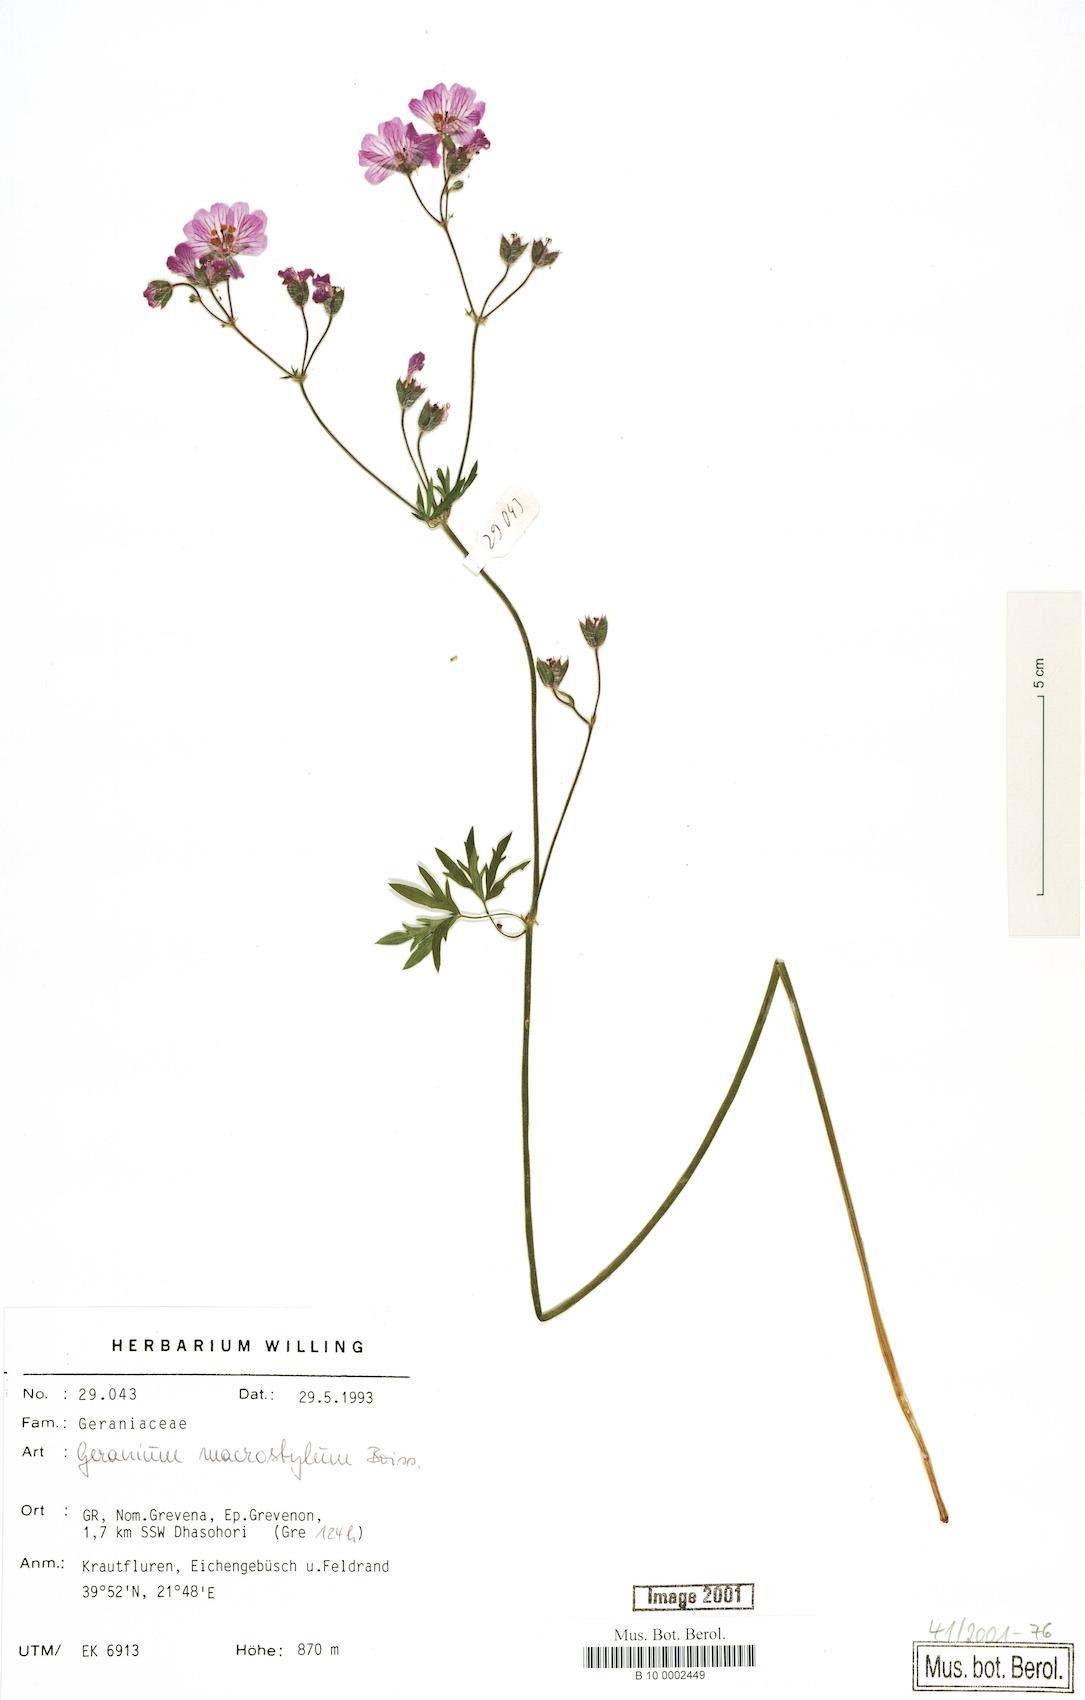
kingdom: Plantae
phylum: Tracheophyta
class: Magnoliopsida
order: Geraniales
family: Geraniaceae
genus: Geranium
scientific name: Geranium macrostylum
